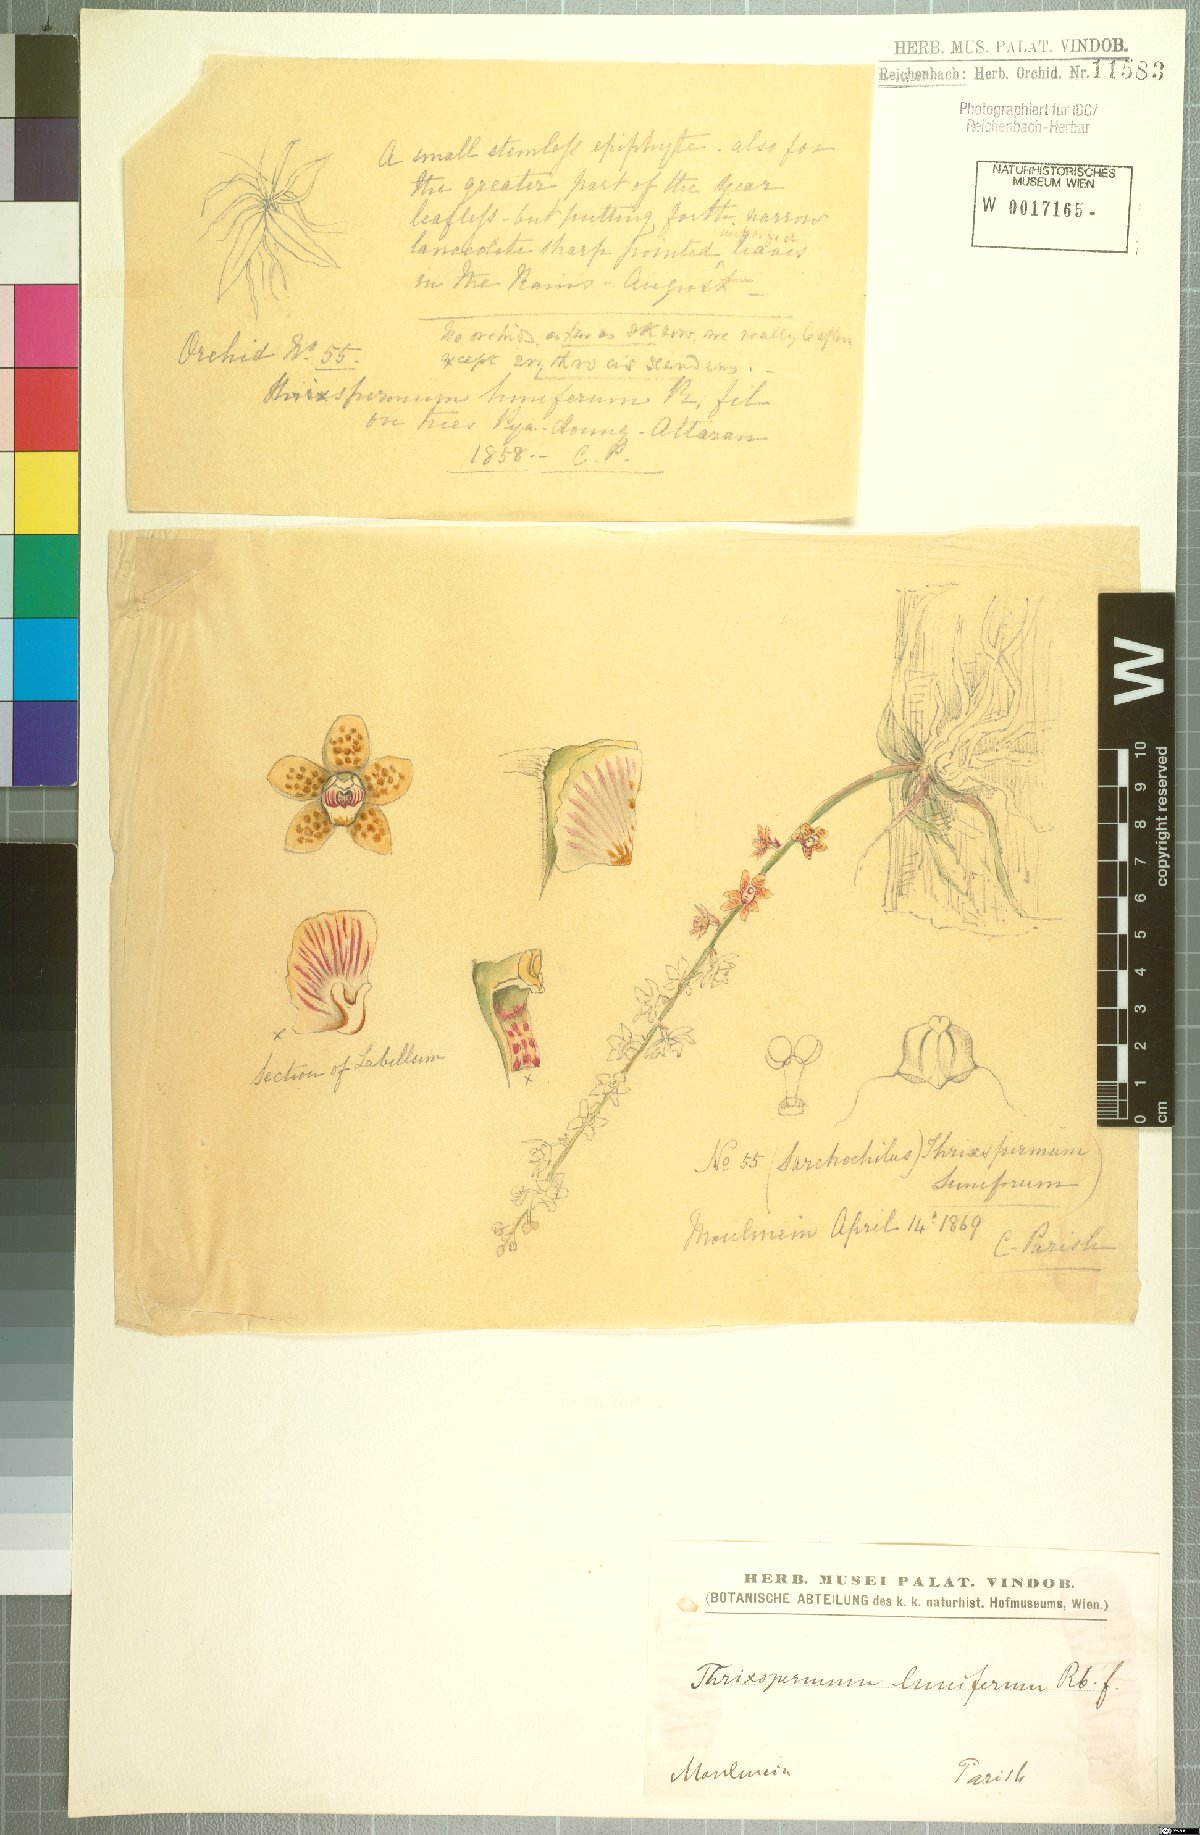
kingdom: Plantae
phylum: Tracheophyta
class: Liliopsida
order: Asparagales
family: Orchidaceae
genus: Chiloschista
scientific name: Chiloschista lunifera
